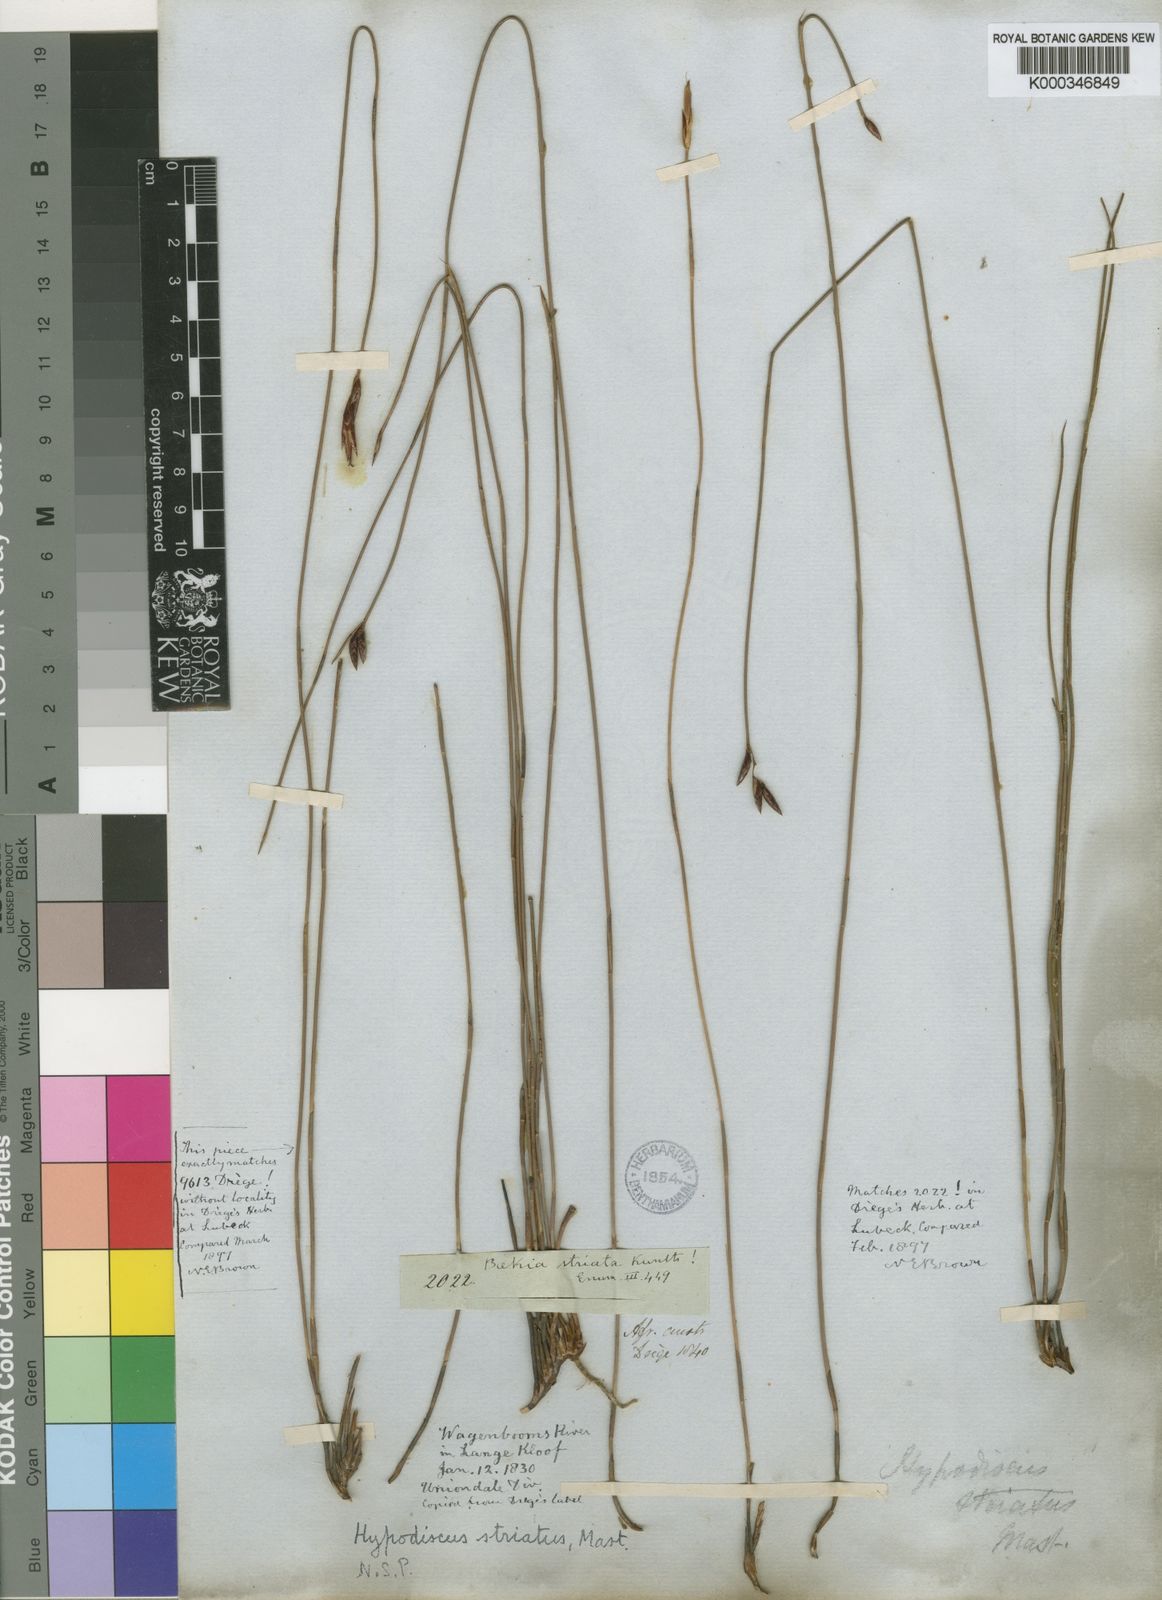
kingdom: Plantae
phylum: Tracheophyta
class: Liliopsida
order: Poales
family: Restionaceae
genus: Hypodiscus
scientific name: Hypodiscus striatus
